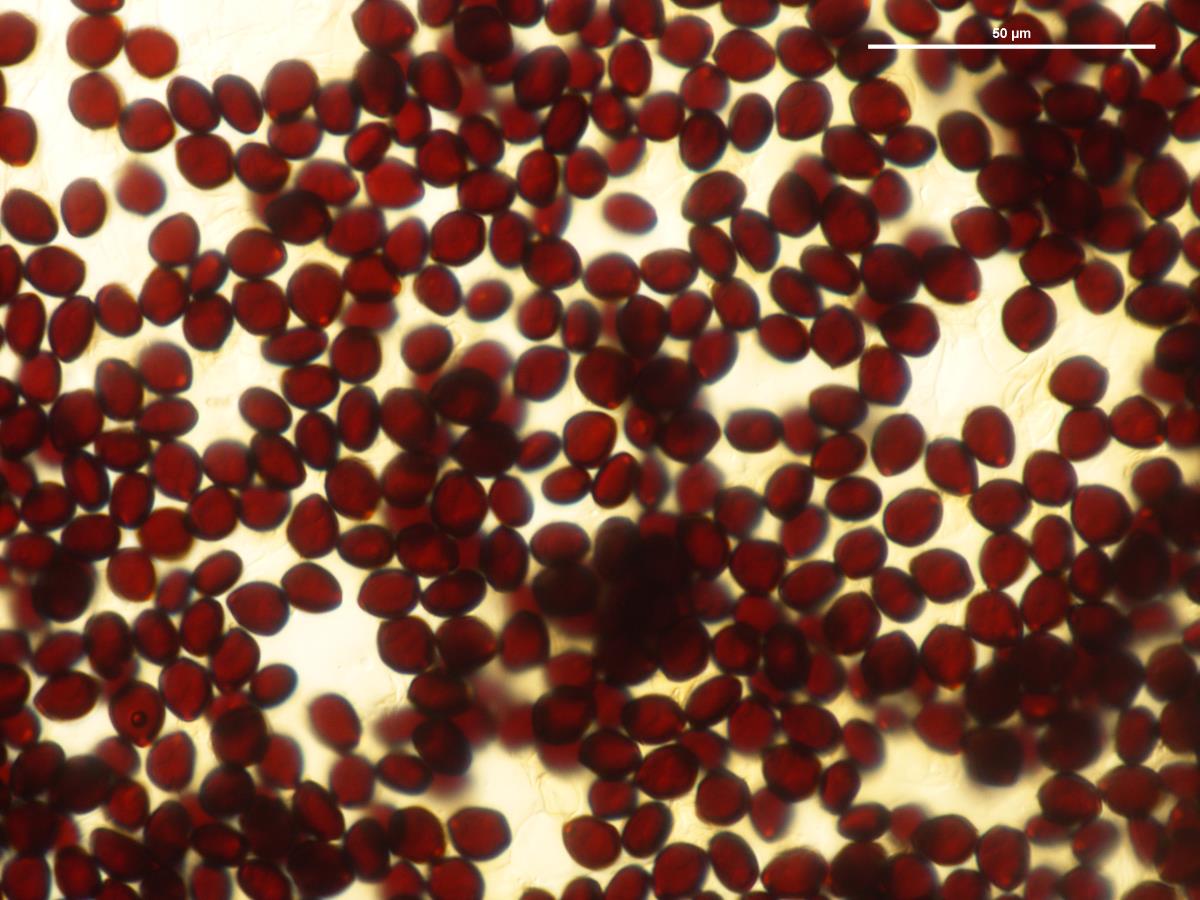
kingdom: Fungi
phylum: Basidiomycota
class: Agaricomycetes
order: Agaricales
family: Psathyrellaceae
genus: Parasola
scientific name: Parasola
